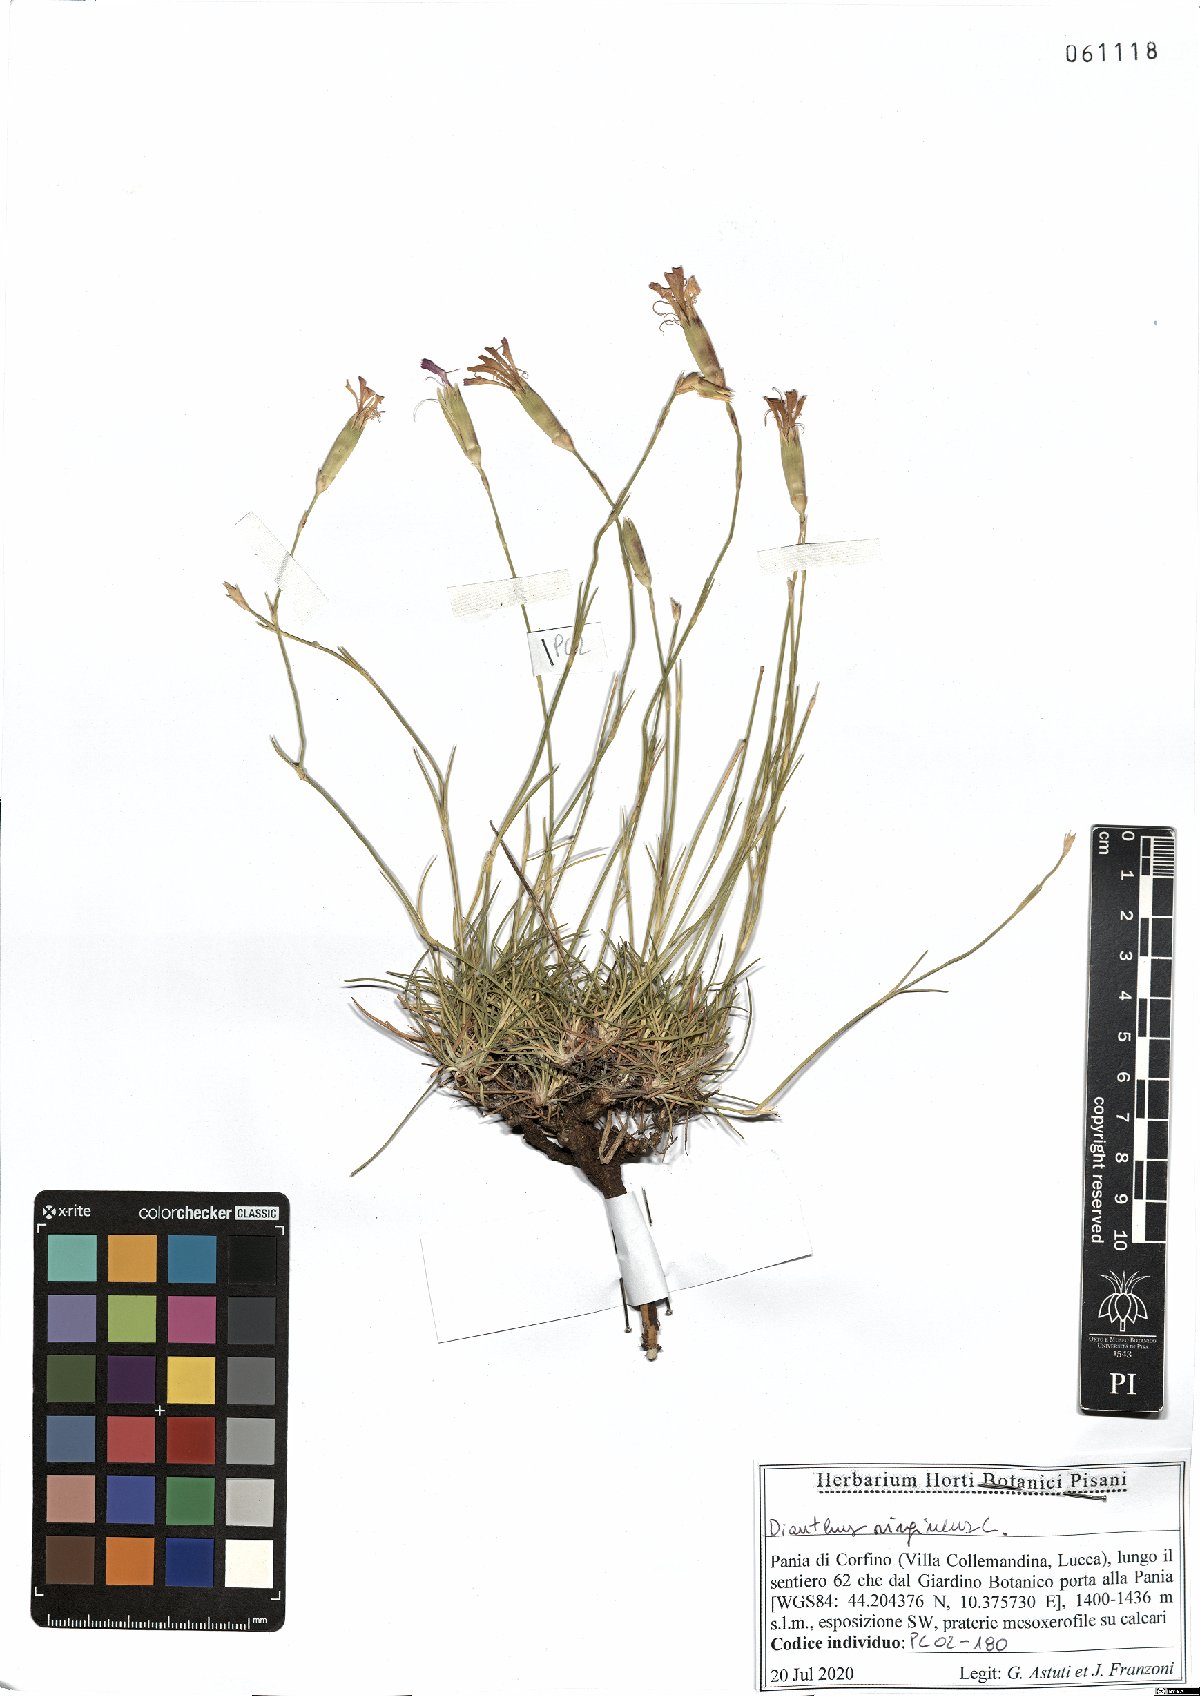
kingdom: Plantae
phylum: Tracheophyta
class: Magnoliopsida
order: Caryophyllales
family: Caryophyllaceae
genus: Dianthus
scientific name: Dianthus virgineus
